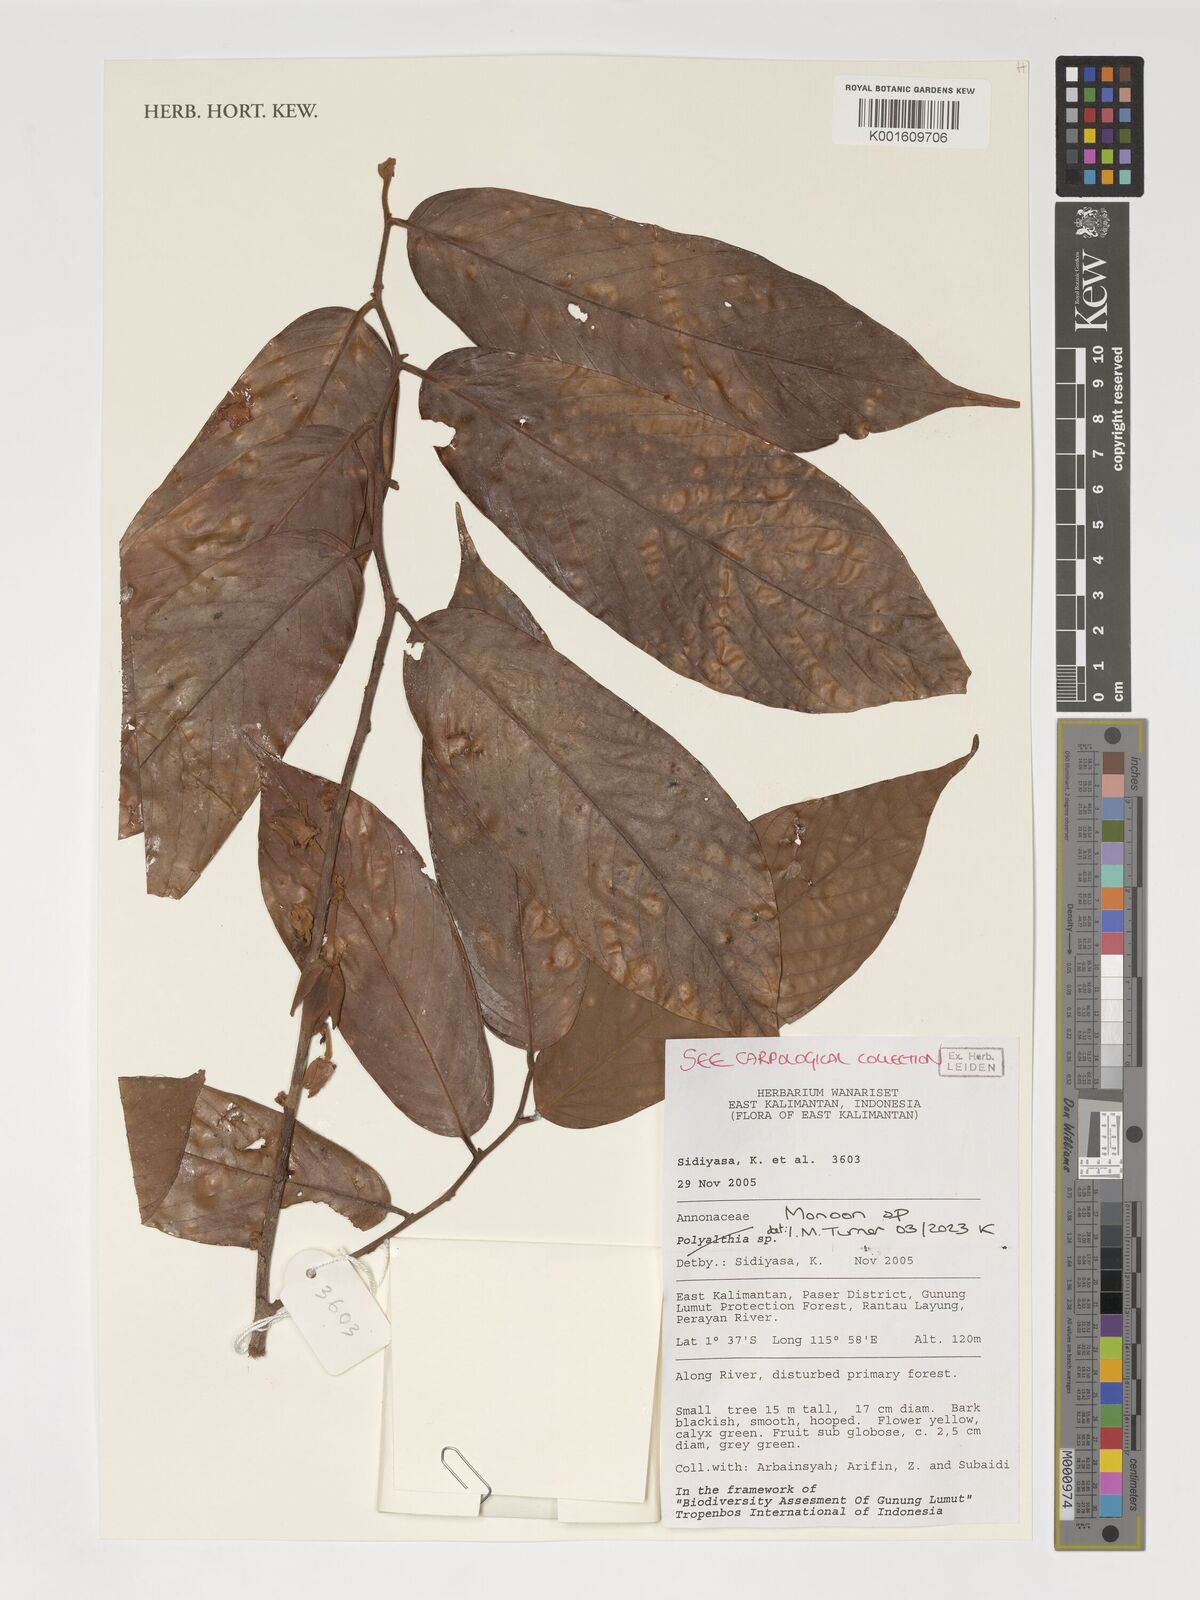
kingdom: Plantae
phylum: Tracheophyta
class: Magnoliopsida
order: Magnoliales
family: Annonaceae
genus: Monoon
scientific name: Monoon
